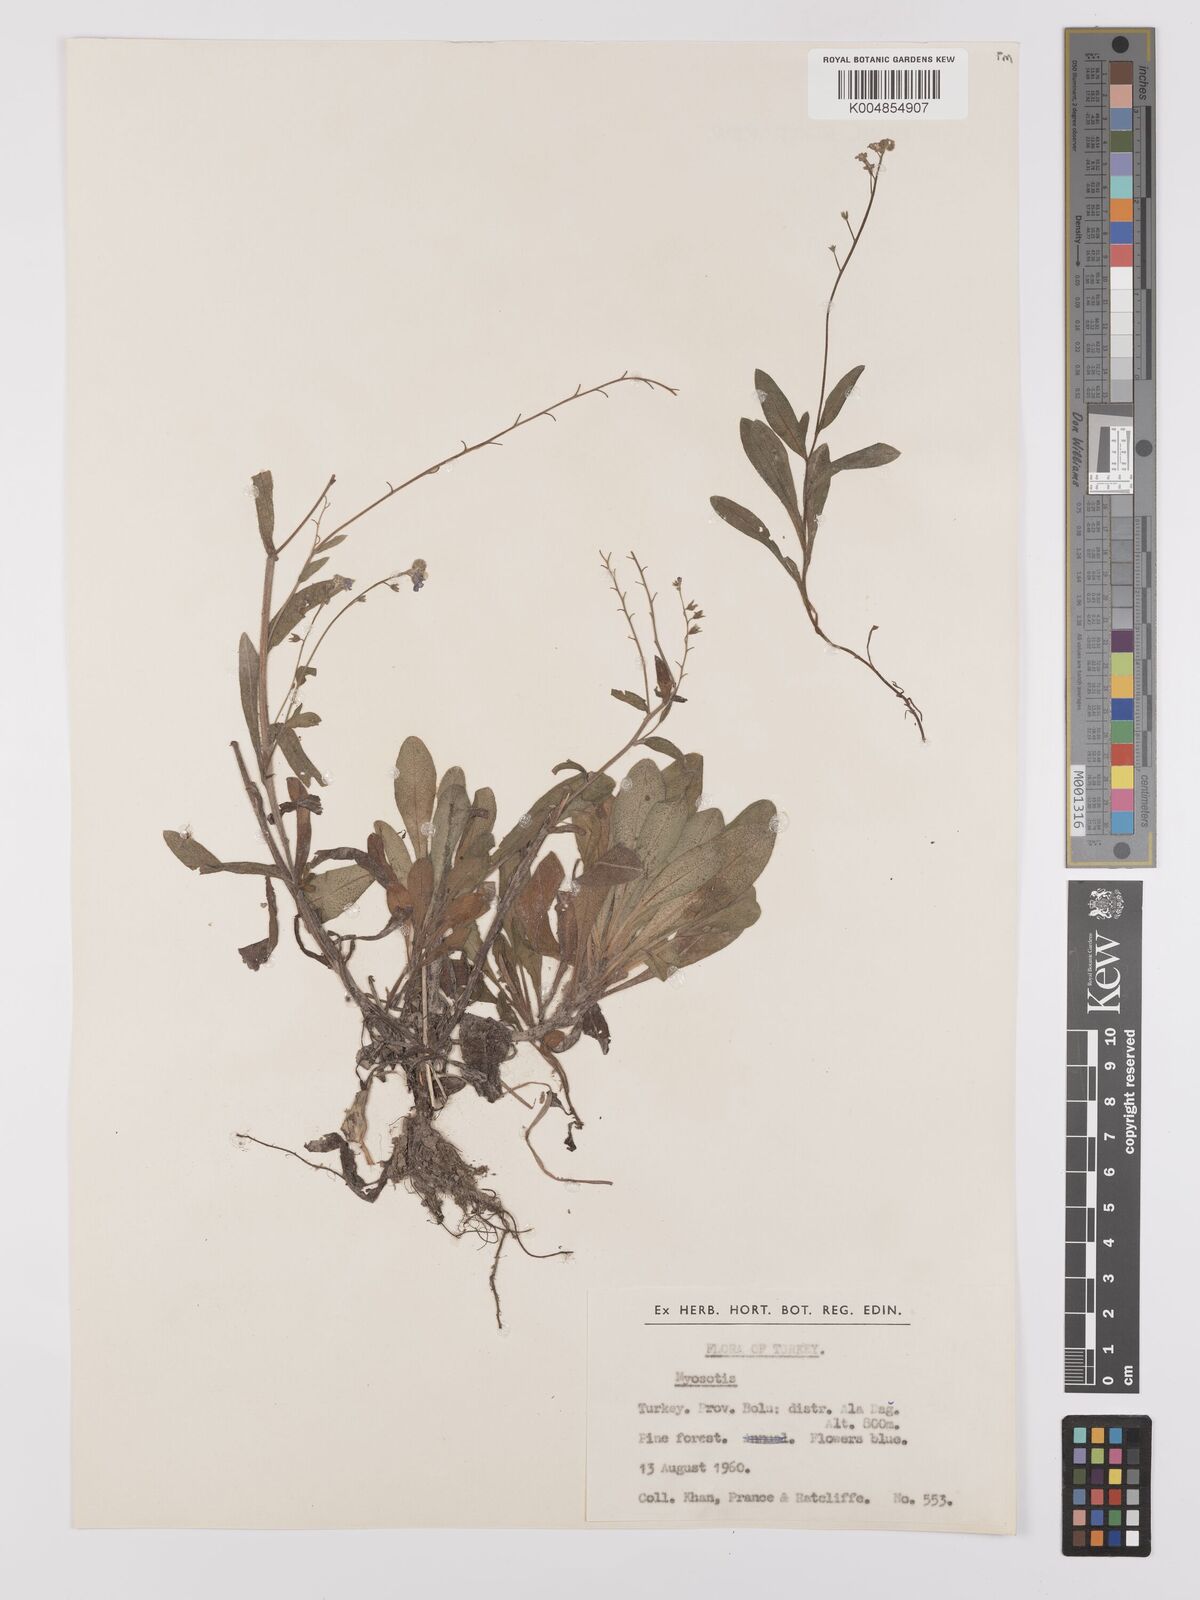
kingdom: Plantae
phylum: Tracheophyta
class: Magnoliopsida
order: Boraginales
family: Boraginaceae
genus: Myosotis
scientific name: Myosotis
